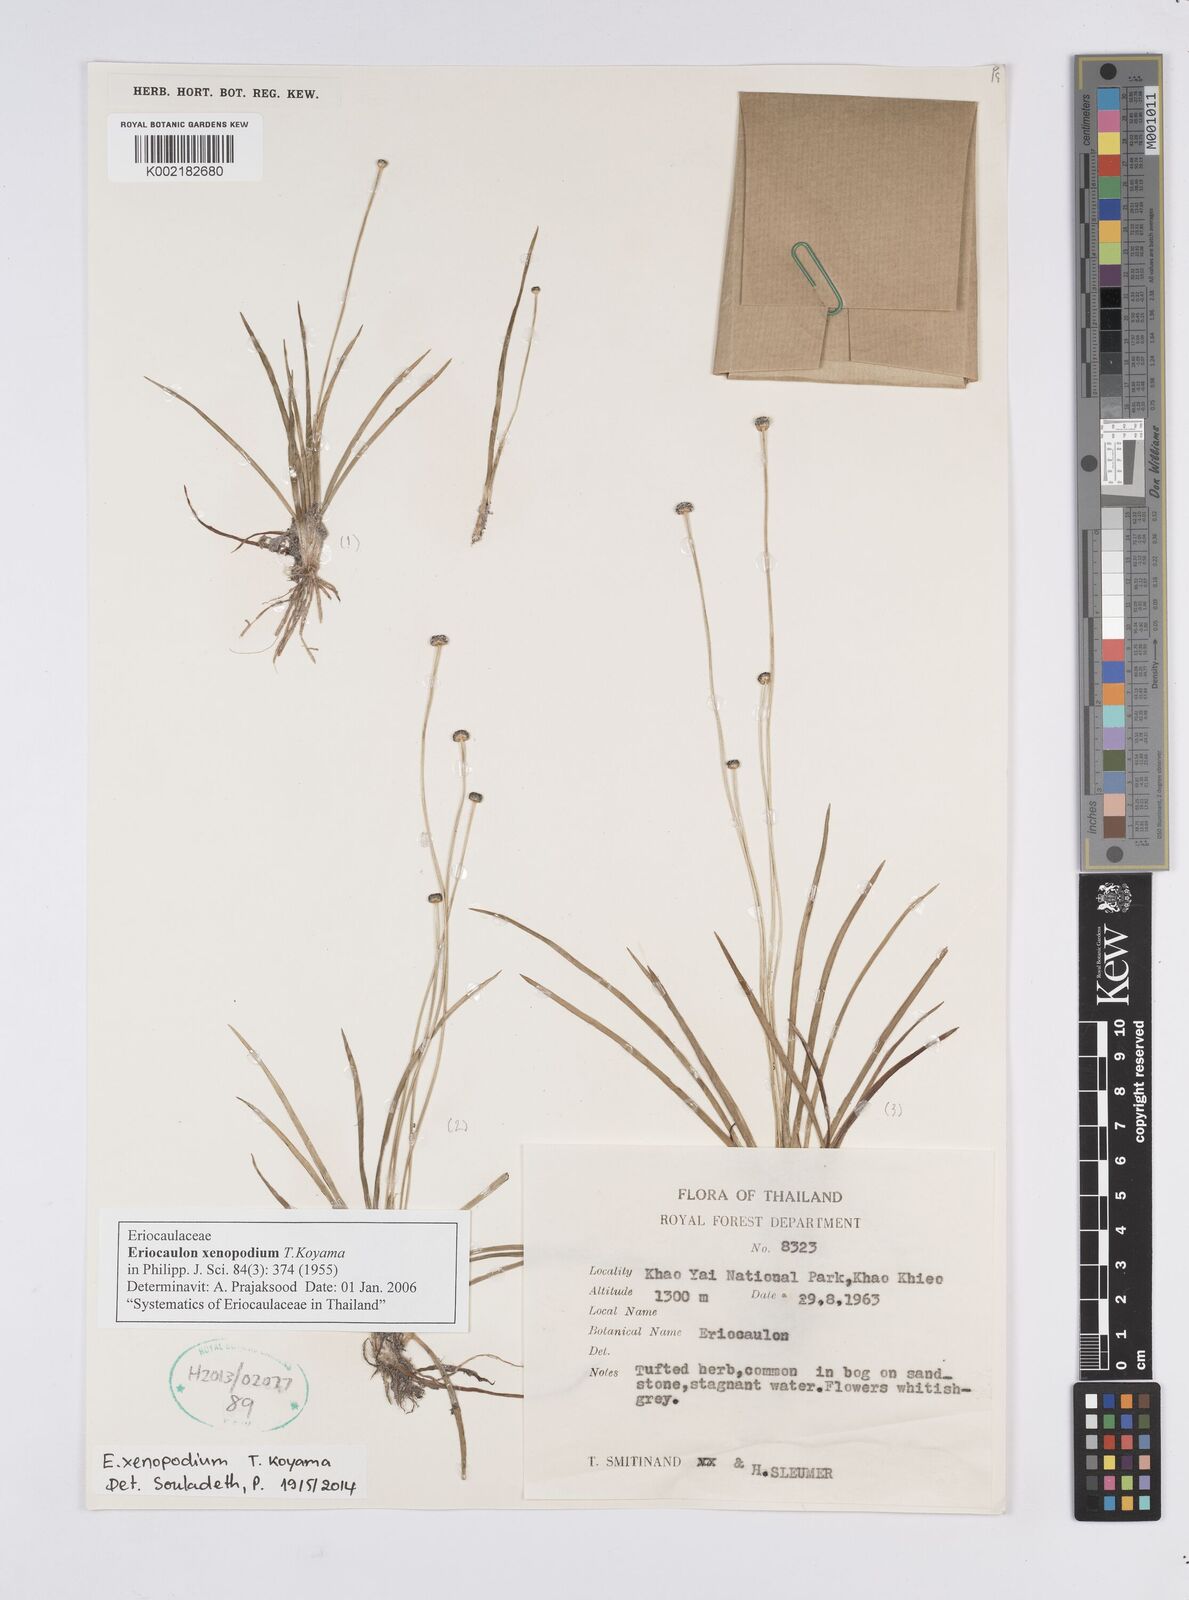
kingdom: Plantae
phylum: Tracheophyta
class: Liliopsida
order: Poales
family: Eriocaulaceae
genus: Eriocaulon
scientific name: Eriocaulon xenopodion
